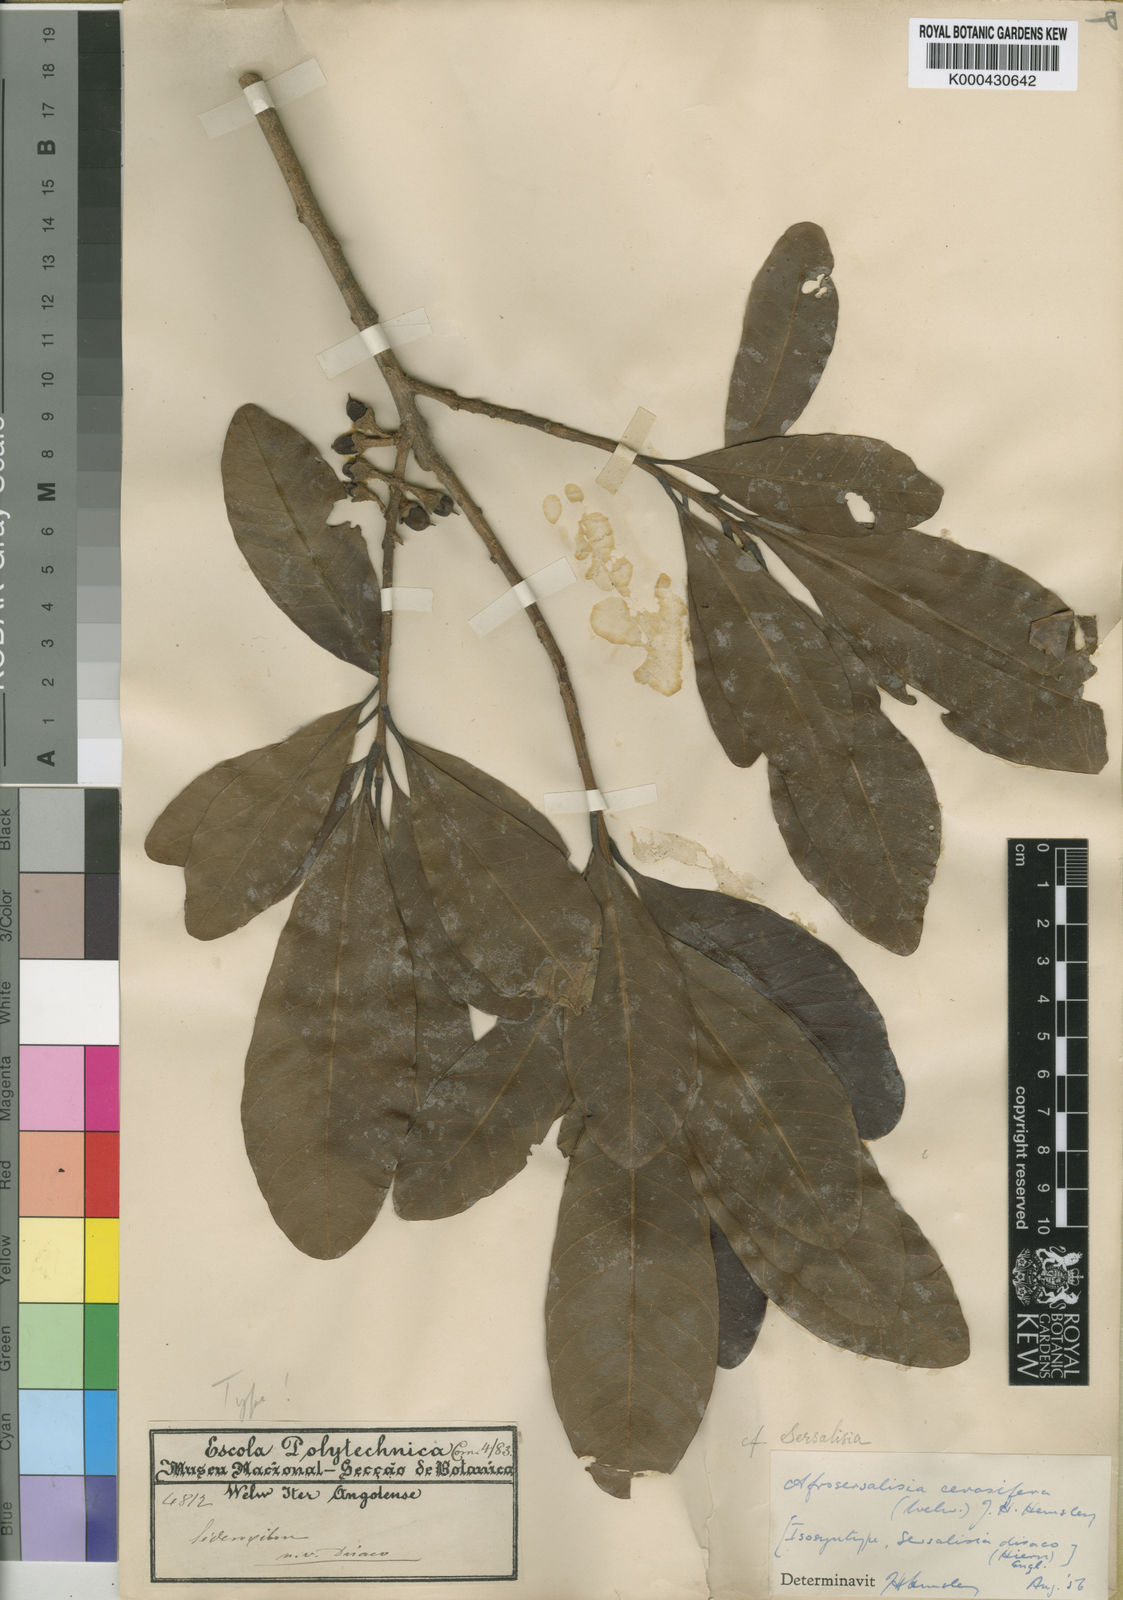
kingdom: Plantae
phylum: Tracheophyta
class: Magnoliopsida
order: Ericales
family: Sapotaceae
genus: Synsepalum
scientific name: Synsepalum cerasiferum
